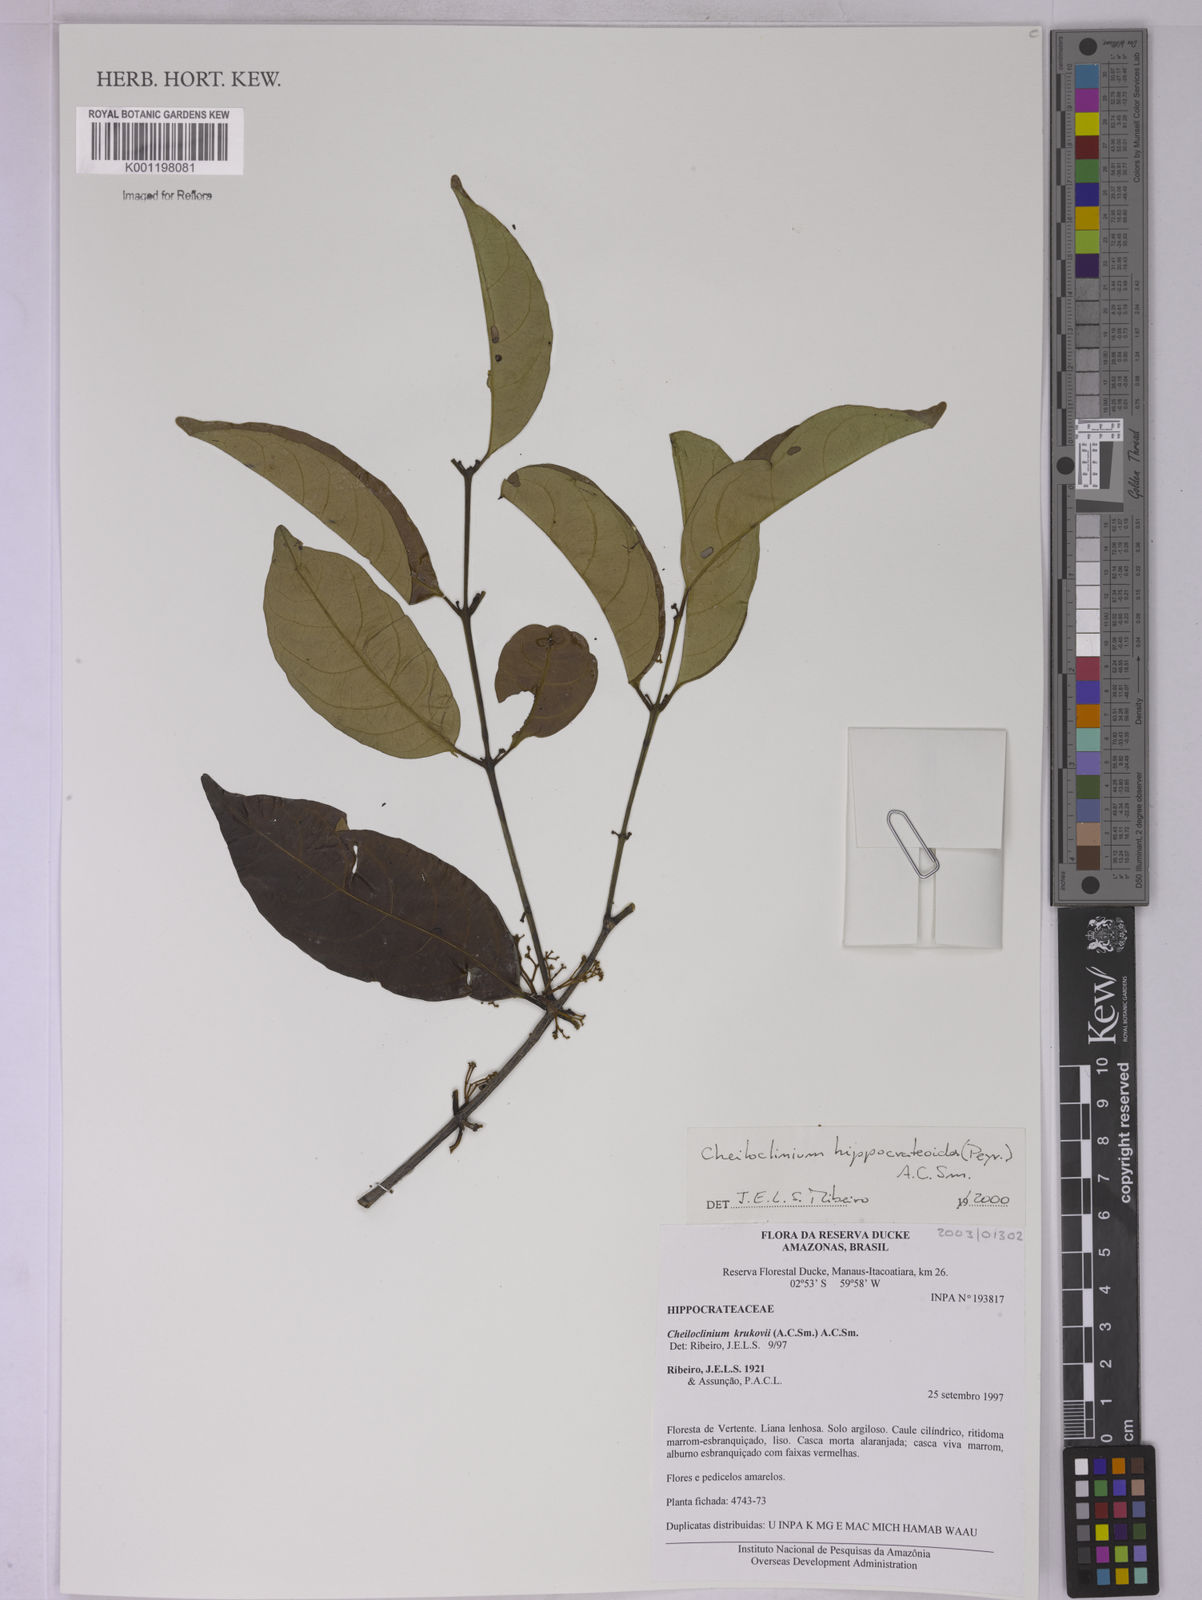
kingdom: Plantae
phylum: Tracheophyta
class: Magnoliopsida
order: Celastrales
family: Celastraceae
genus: Cheiloclinium
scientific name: Cheiloclinium hippocrateoides
